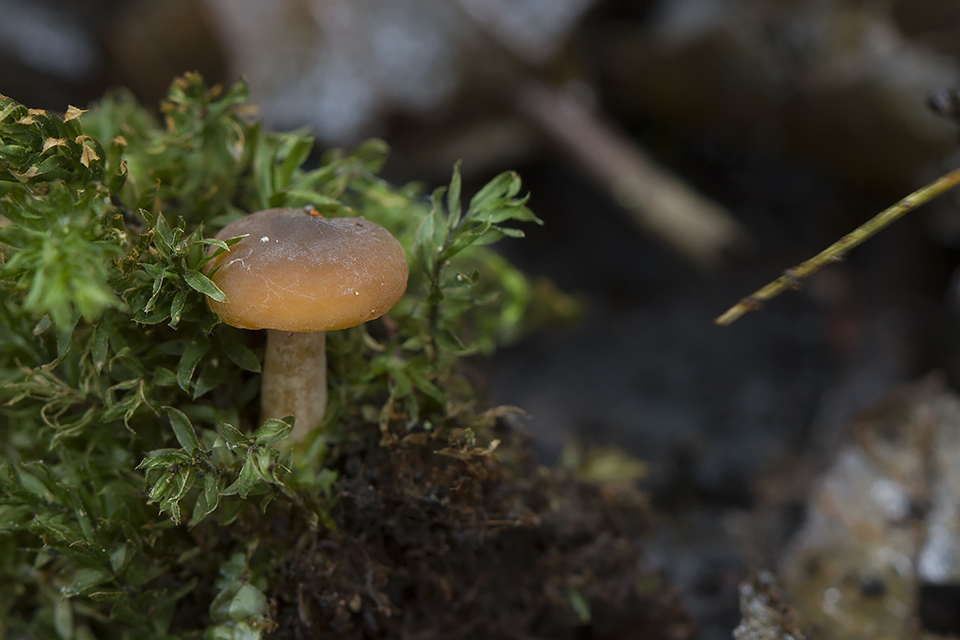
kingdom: Fungi
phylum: Basidiomycota
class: Agaricomycetes
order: Russulales
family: Russulaceae
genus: Lactarius
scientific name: Lactarius obscuratus
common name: elle-mælkehat
